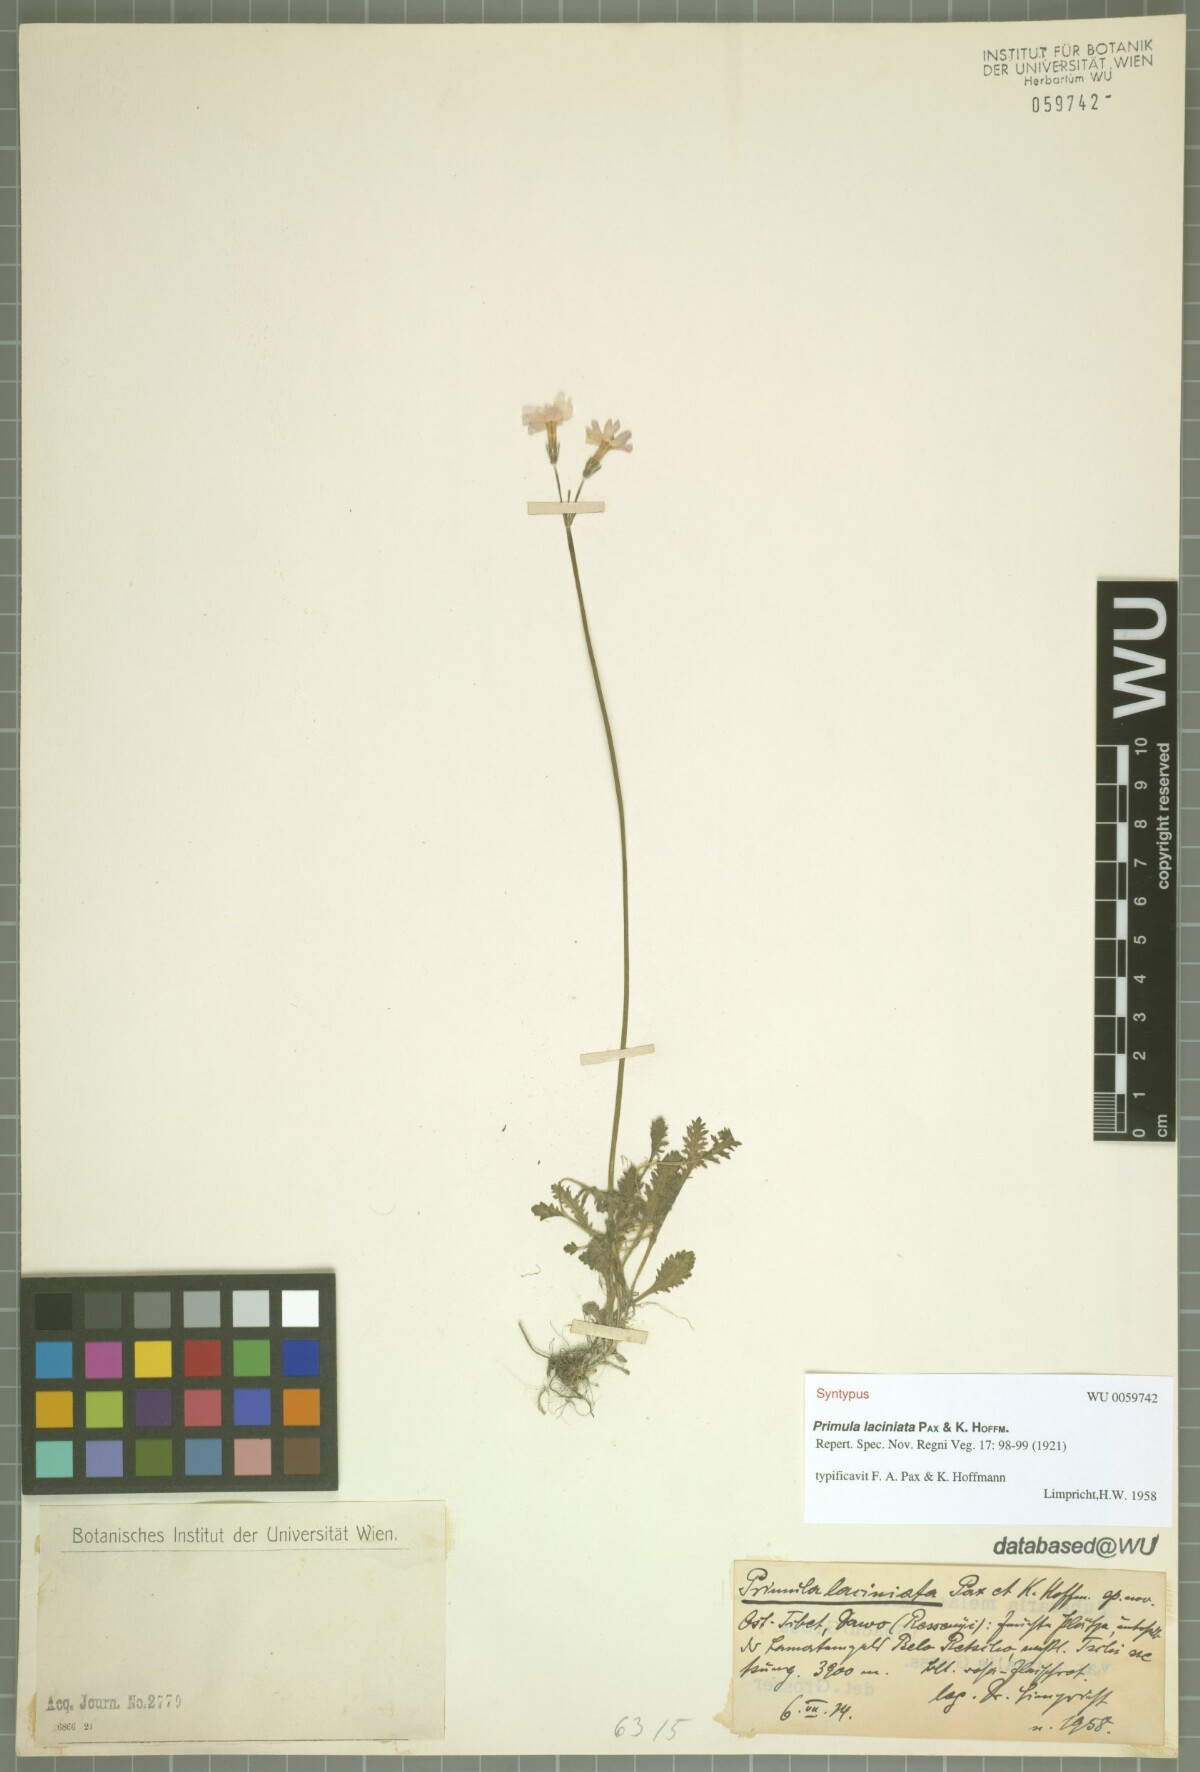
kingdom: Plantae
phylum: Tracheophyta
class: Magnoliopsida
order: Ericales
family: Primulaceae
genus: Primula
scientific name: Primula laciniata
